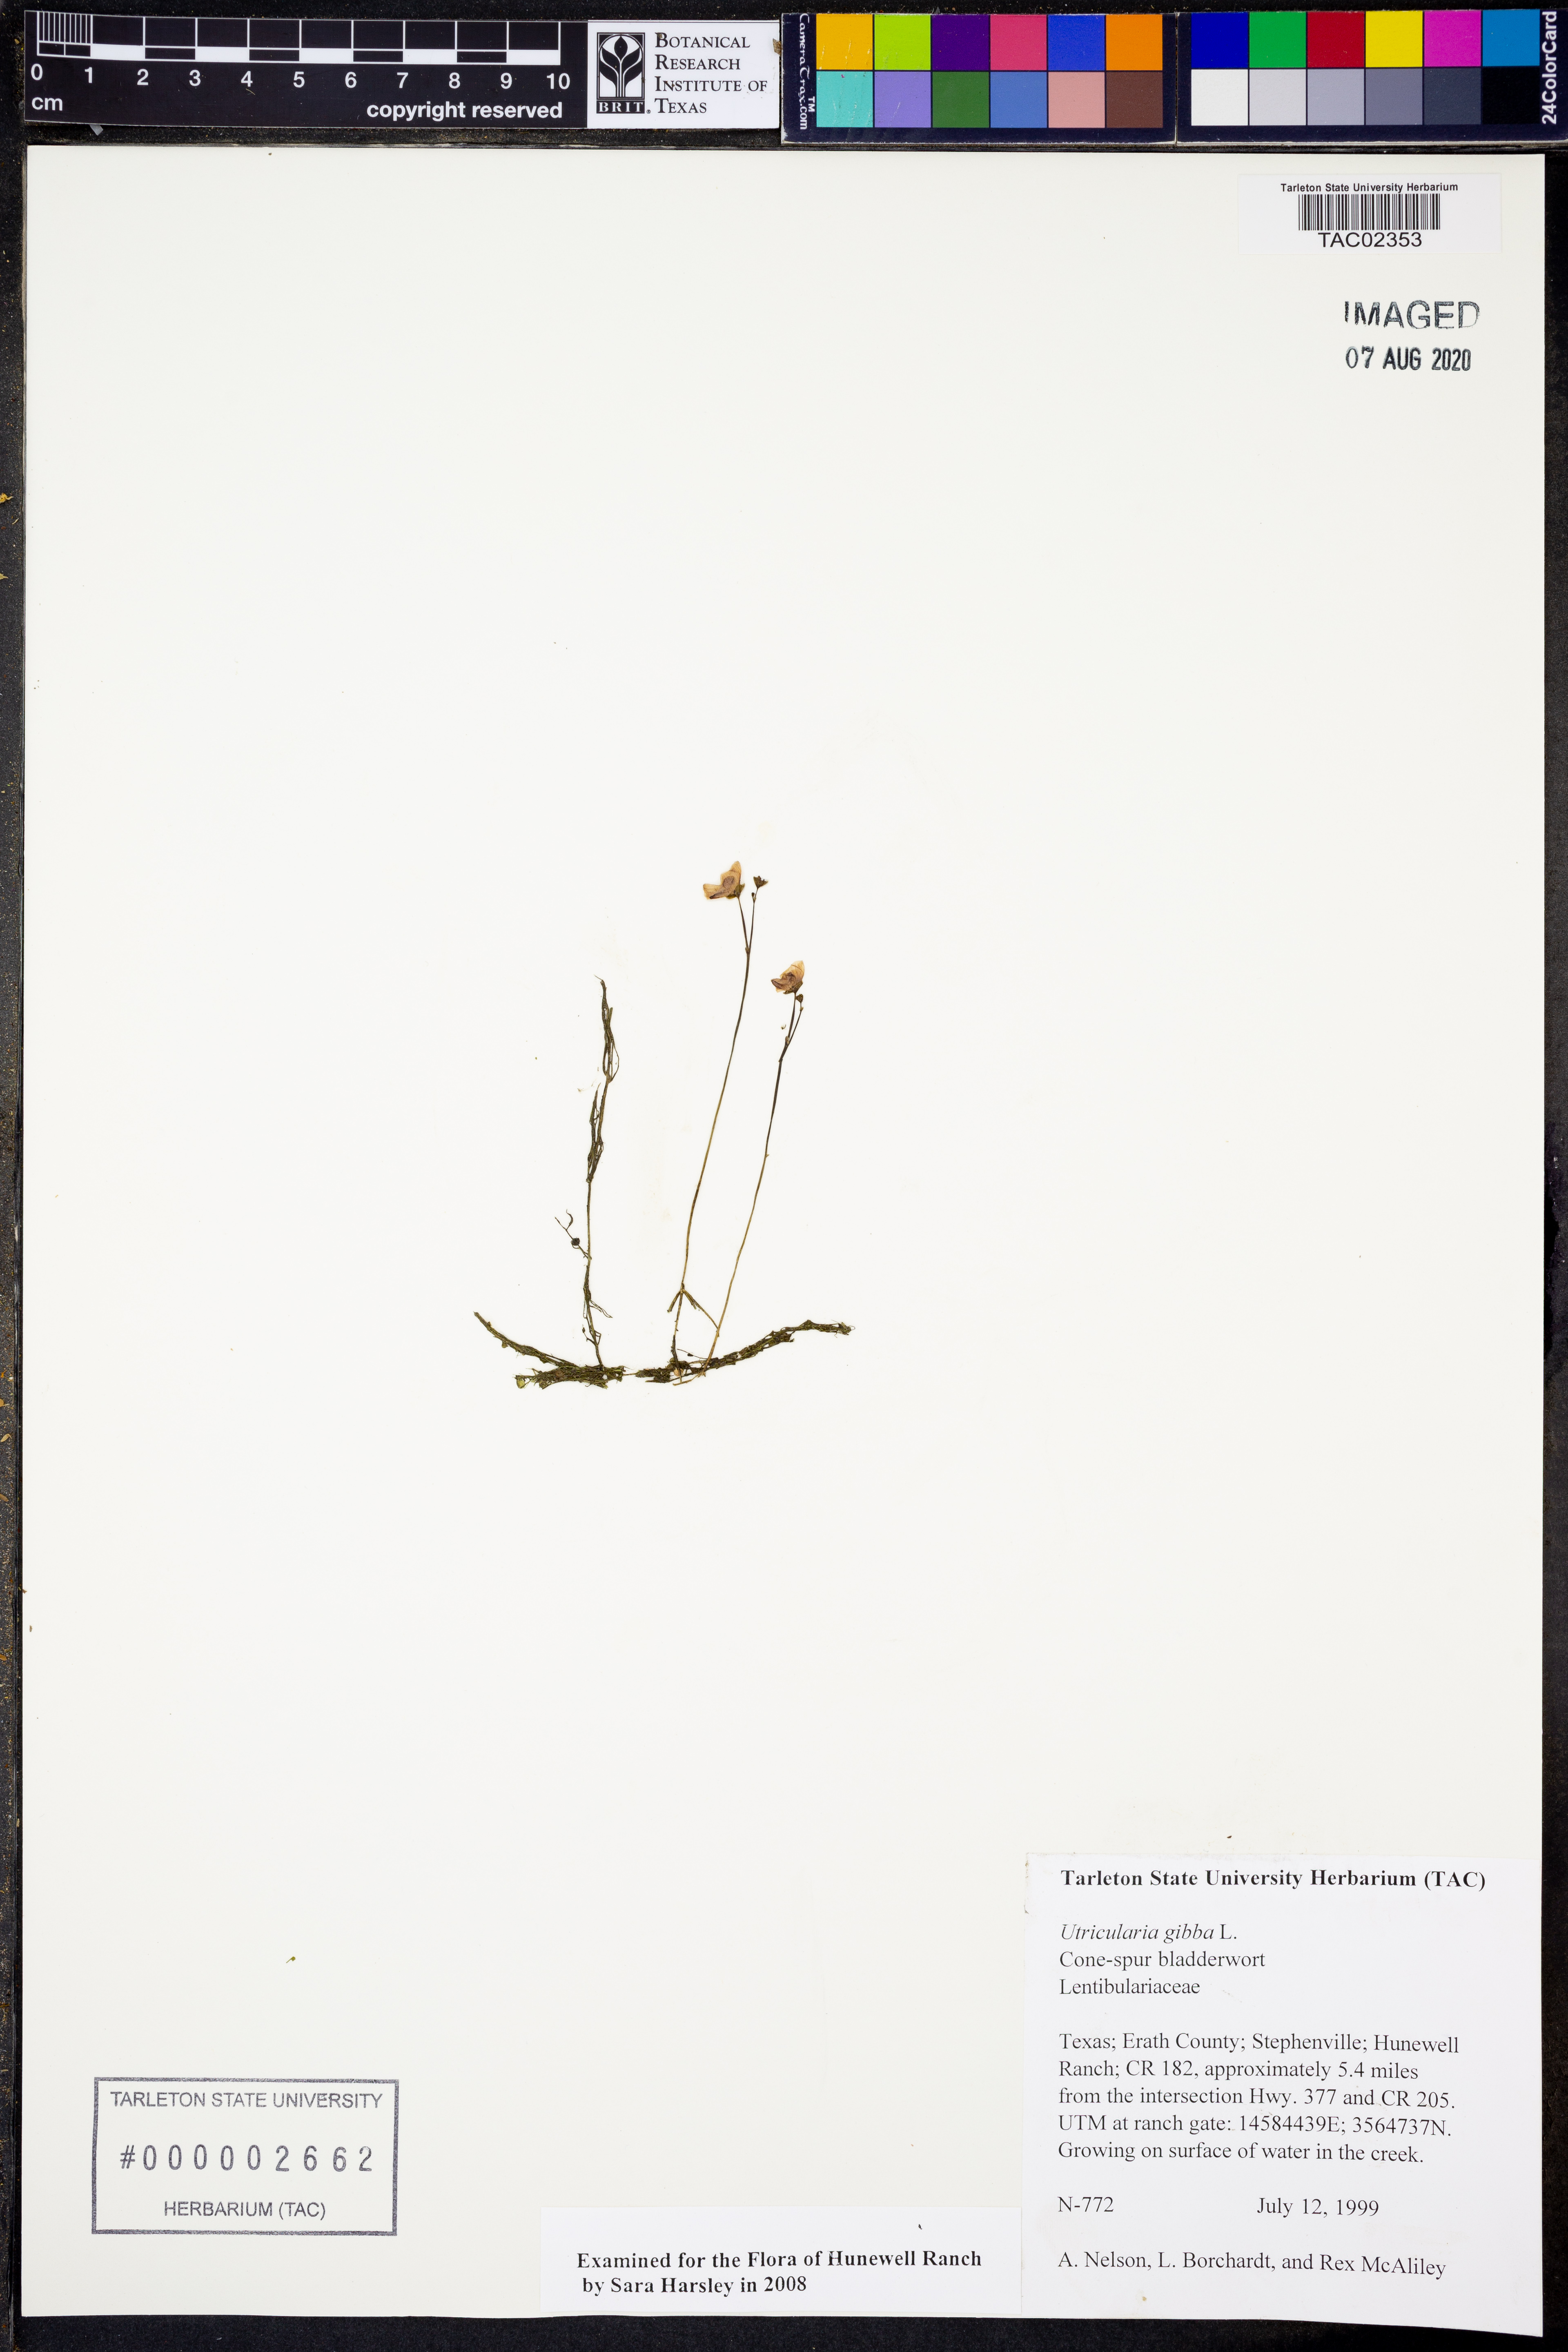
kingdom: Plantae
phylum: Tracheophyta
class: Magnoliopsida
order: Lamiales
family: Lentibulariaceae
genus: Utricularia
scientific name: Utricularia gibba
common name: Humped bladderwort
